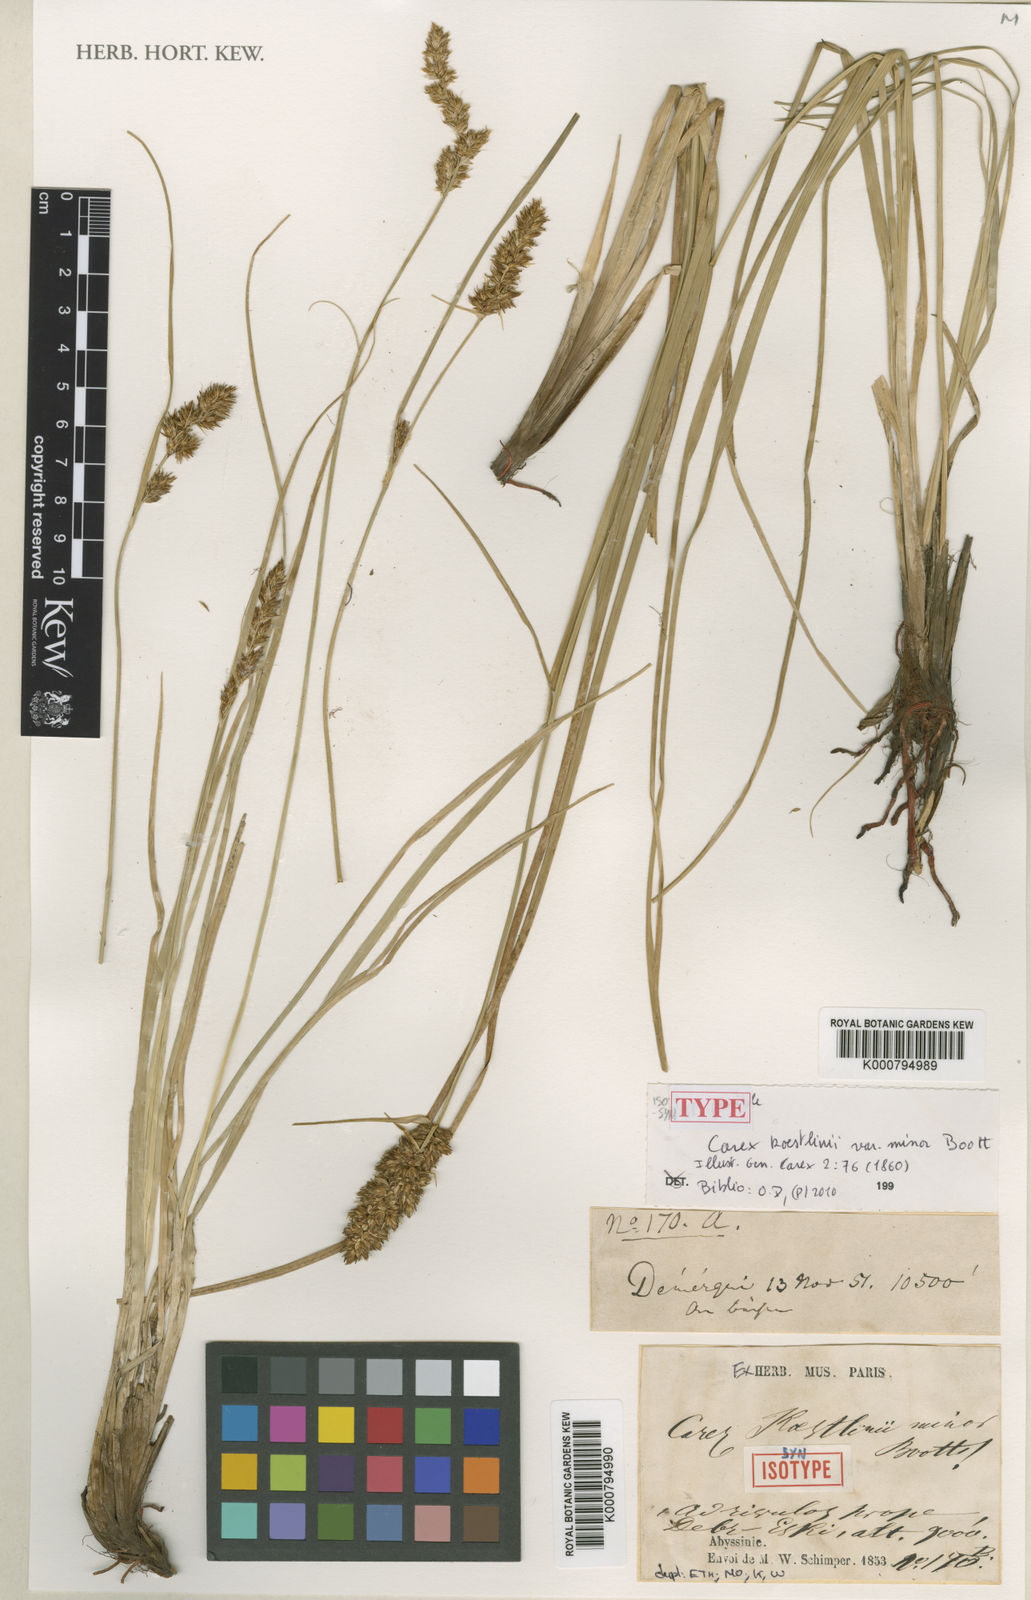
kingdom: Plantae
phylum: Tracheophyta
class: Liliopsida
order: Poales
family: Cyperaceae
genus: Carex
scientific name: Carex erythrorrhiza
